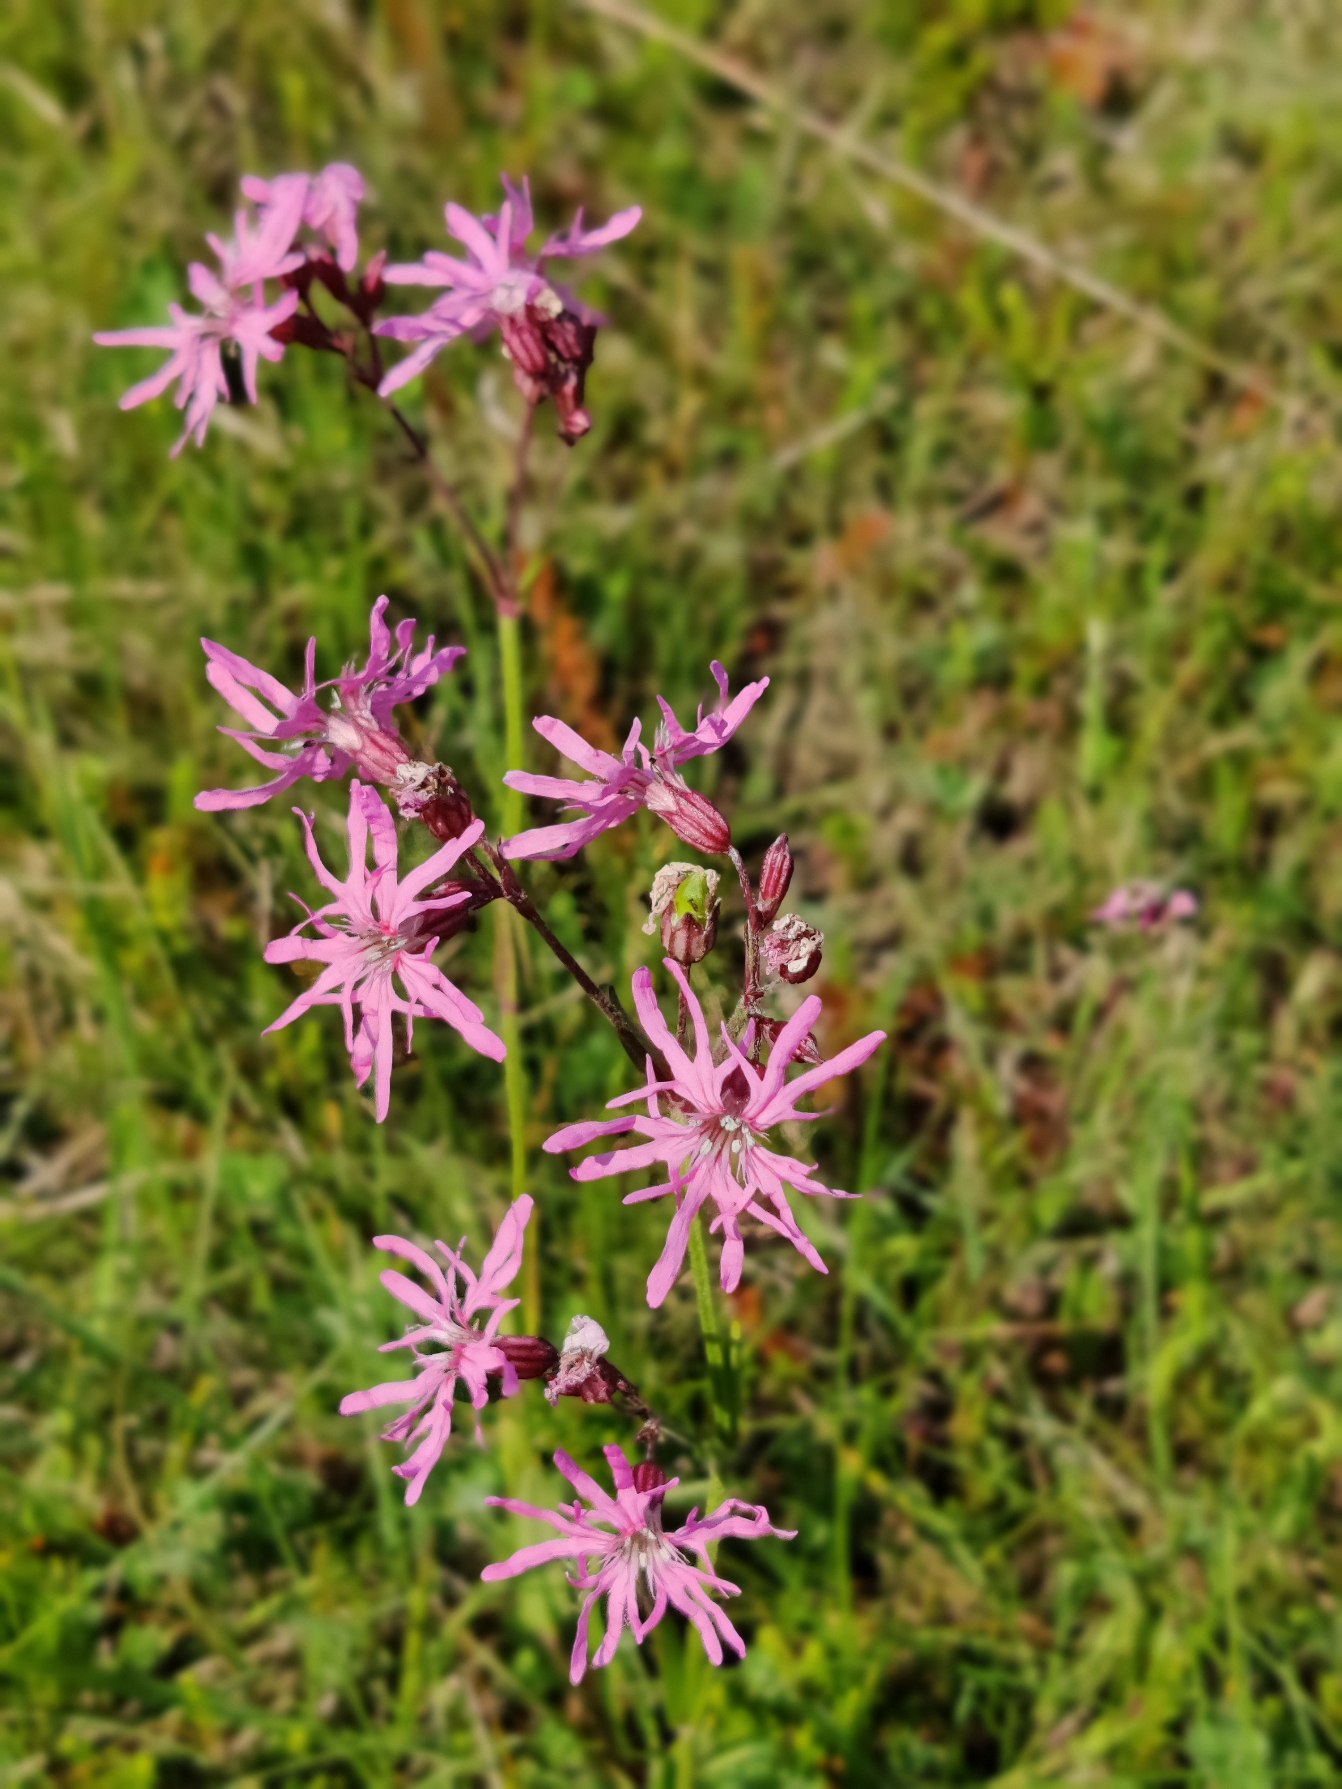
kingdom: Plantae
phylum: Tracheophyta
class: Magnoliopsida
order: Caryophyllales
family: Caryophyllaceae
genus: Silene
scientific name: Silene flos-cuculi
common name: Trævlekrone
